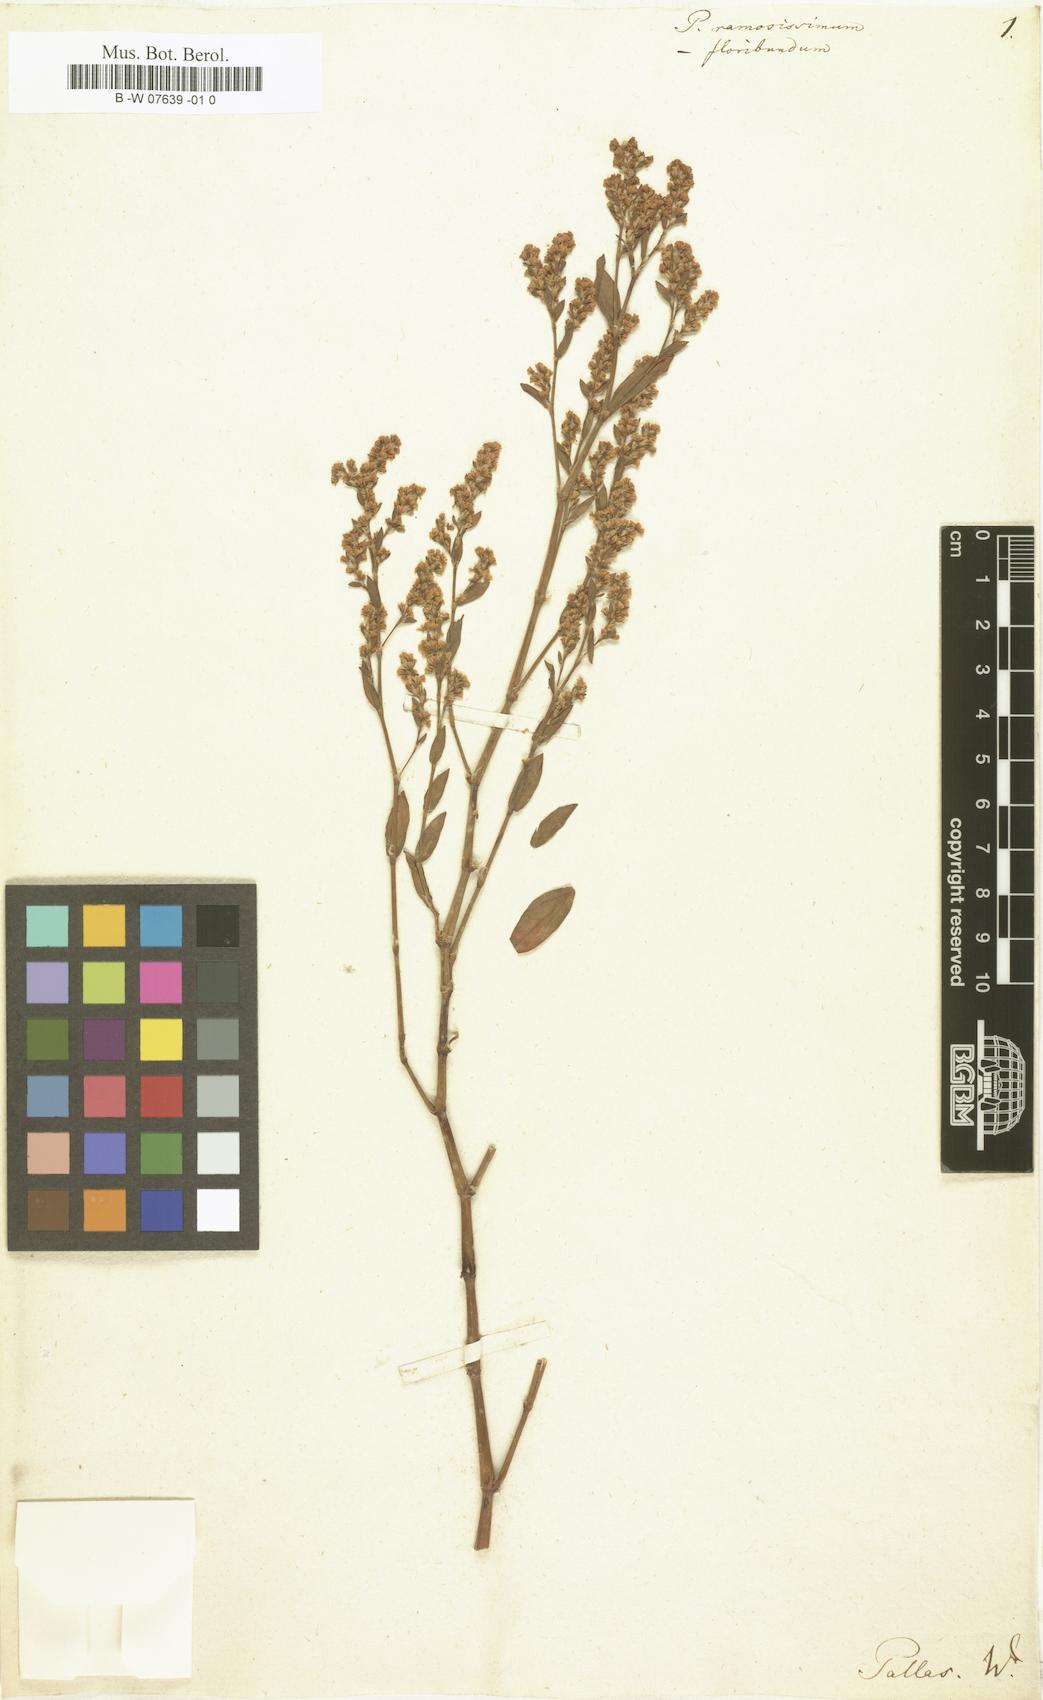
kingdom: Plantae
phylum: Tracheophyta
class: Magnoliopsida
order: Caryophyllales
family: Polygonaceae
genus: Polygonum
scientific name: Polygonum floribundum
